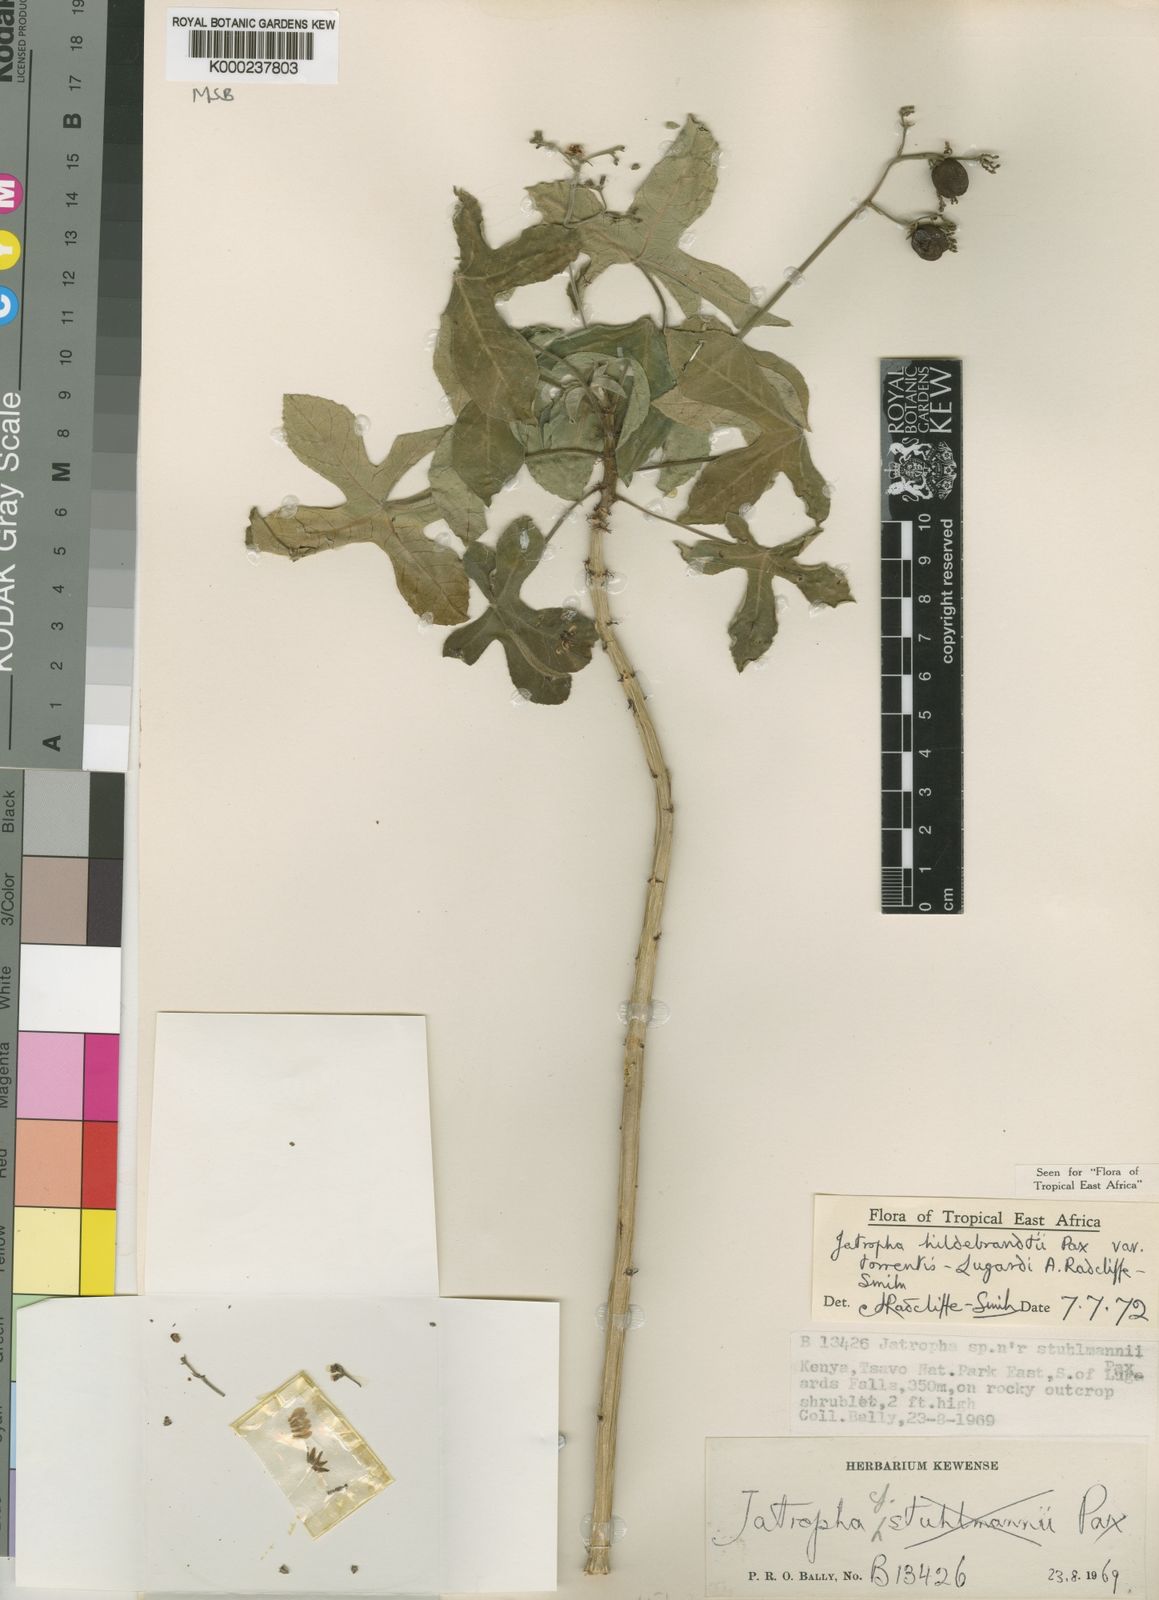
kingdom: Plantae
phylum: Tracheophyta
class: Magnoliopsida
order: Malpighiales
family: Euphorbiaceae
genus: Jatropha
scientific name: Jatropha hildebrandtii
